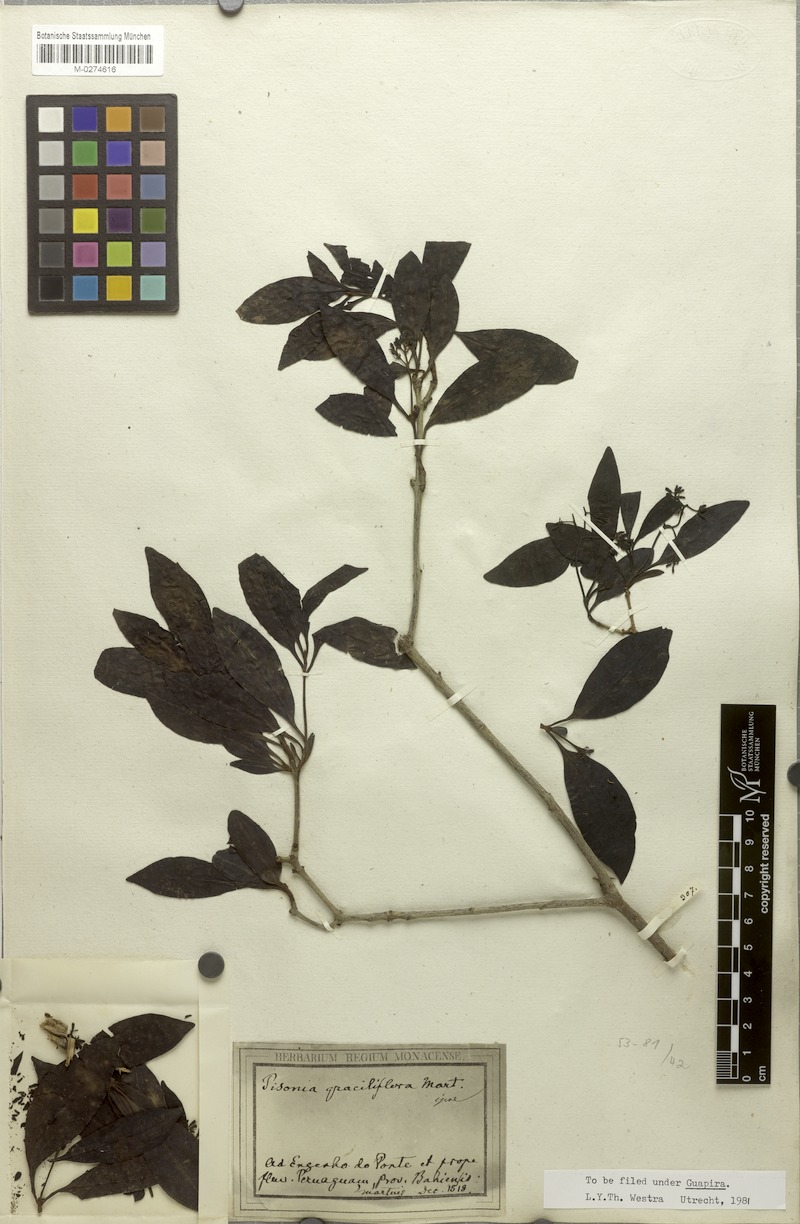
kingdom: Plantae
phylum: Tracheophyta
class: Magnoliopsida
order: Caryophyllales
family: Nyctaginaceae
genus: Guapira
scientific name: Guapira graciliflora
